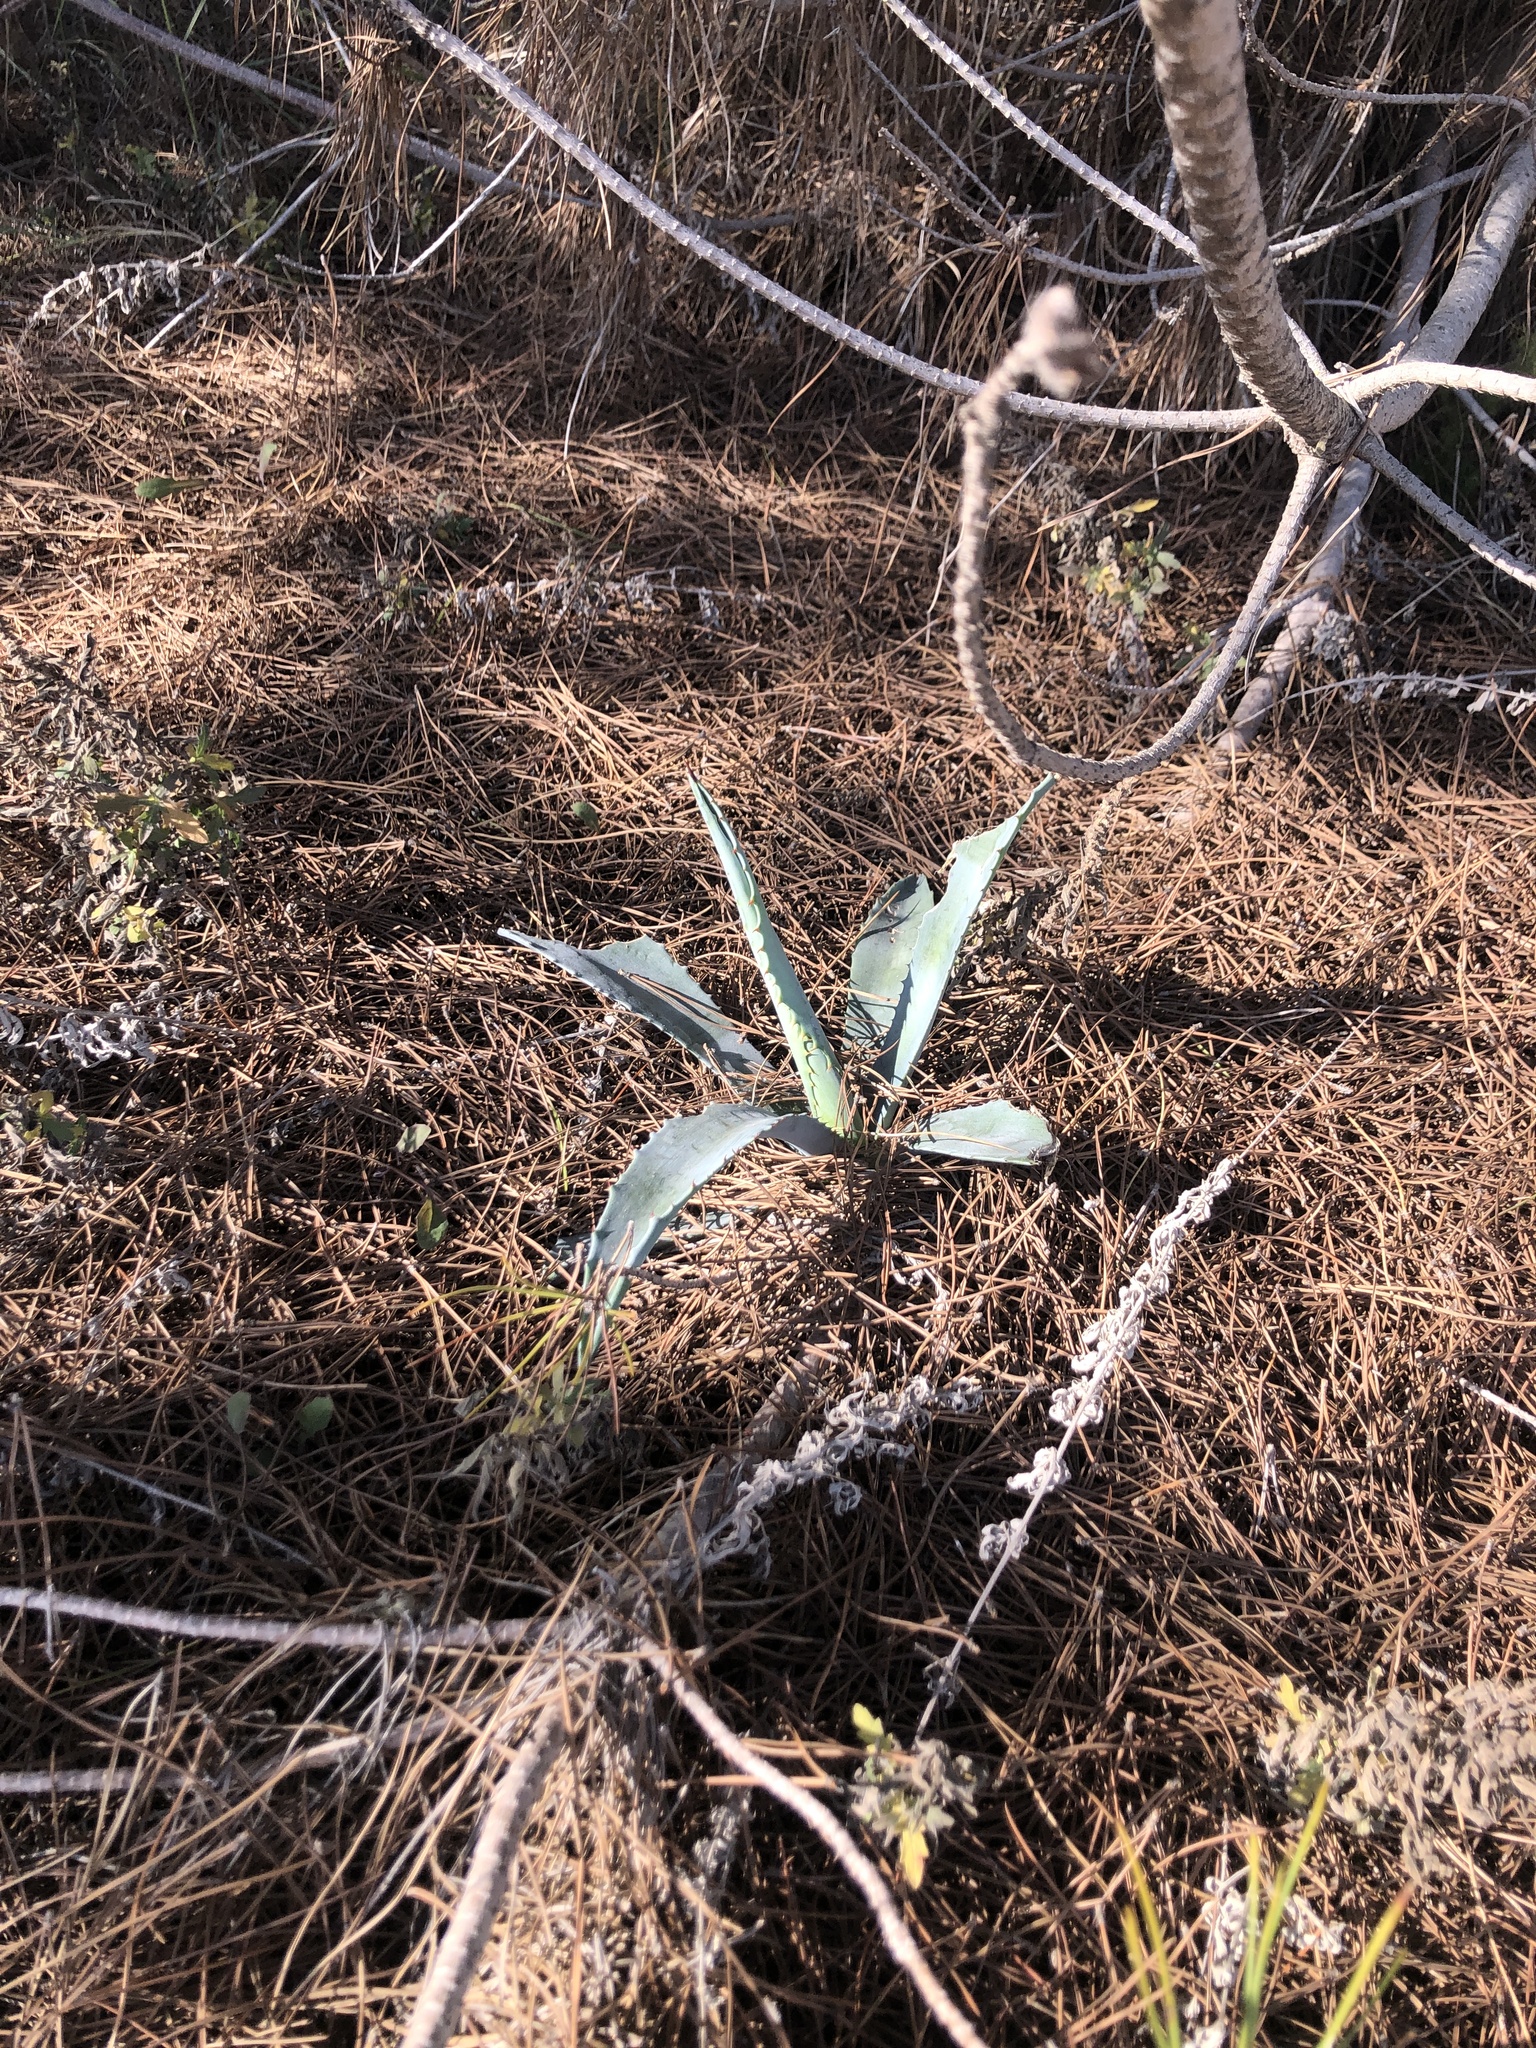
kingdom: Plantae
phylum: Tracheophyta
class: Liliopsida
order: Asparagales
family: Asparagaceae
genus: Agave
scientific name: Agave americana
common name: Centuryplant
